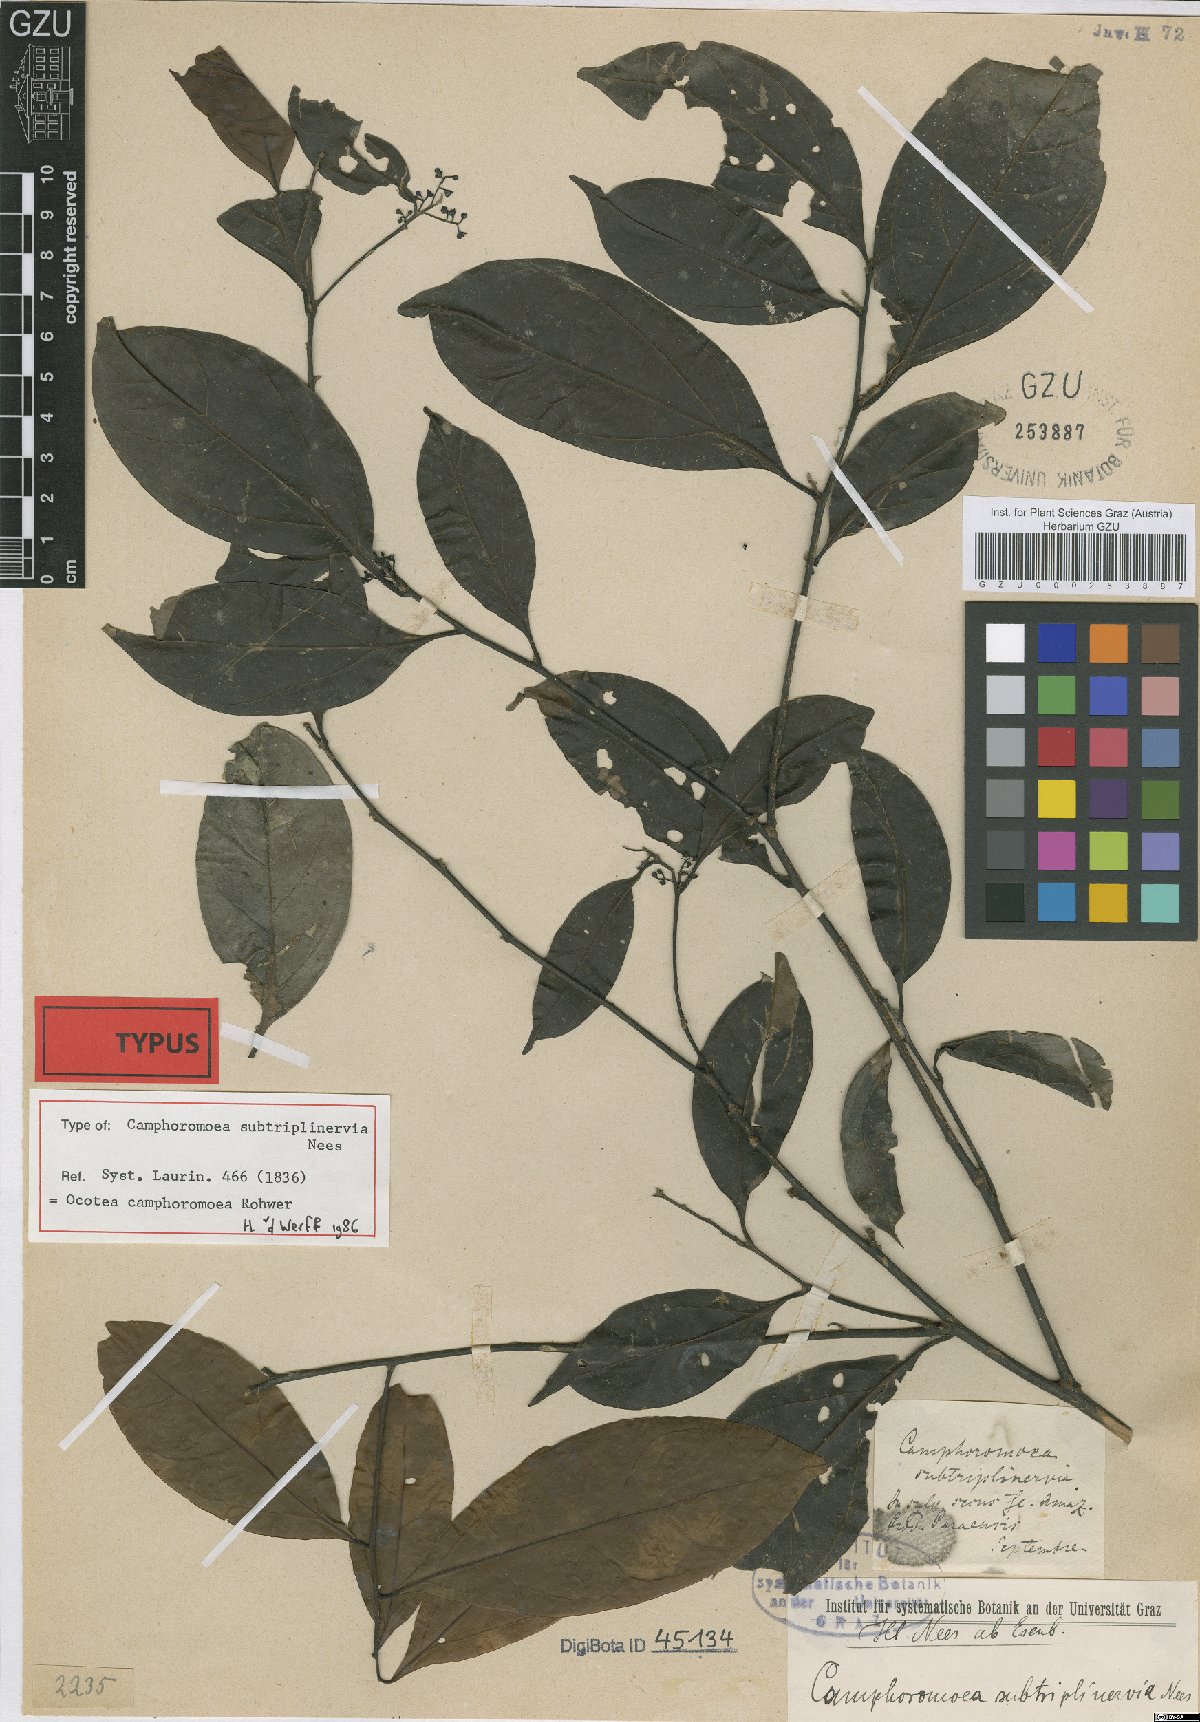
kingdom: Plantae
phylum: Tracheophyta
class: Magnoliopsida
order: Laurales
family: Lauraceae
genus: Ocotea
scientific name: Ocotea camphoromoea
